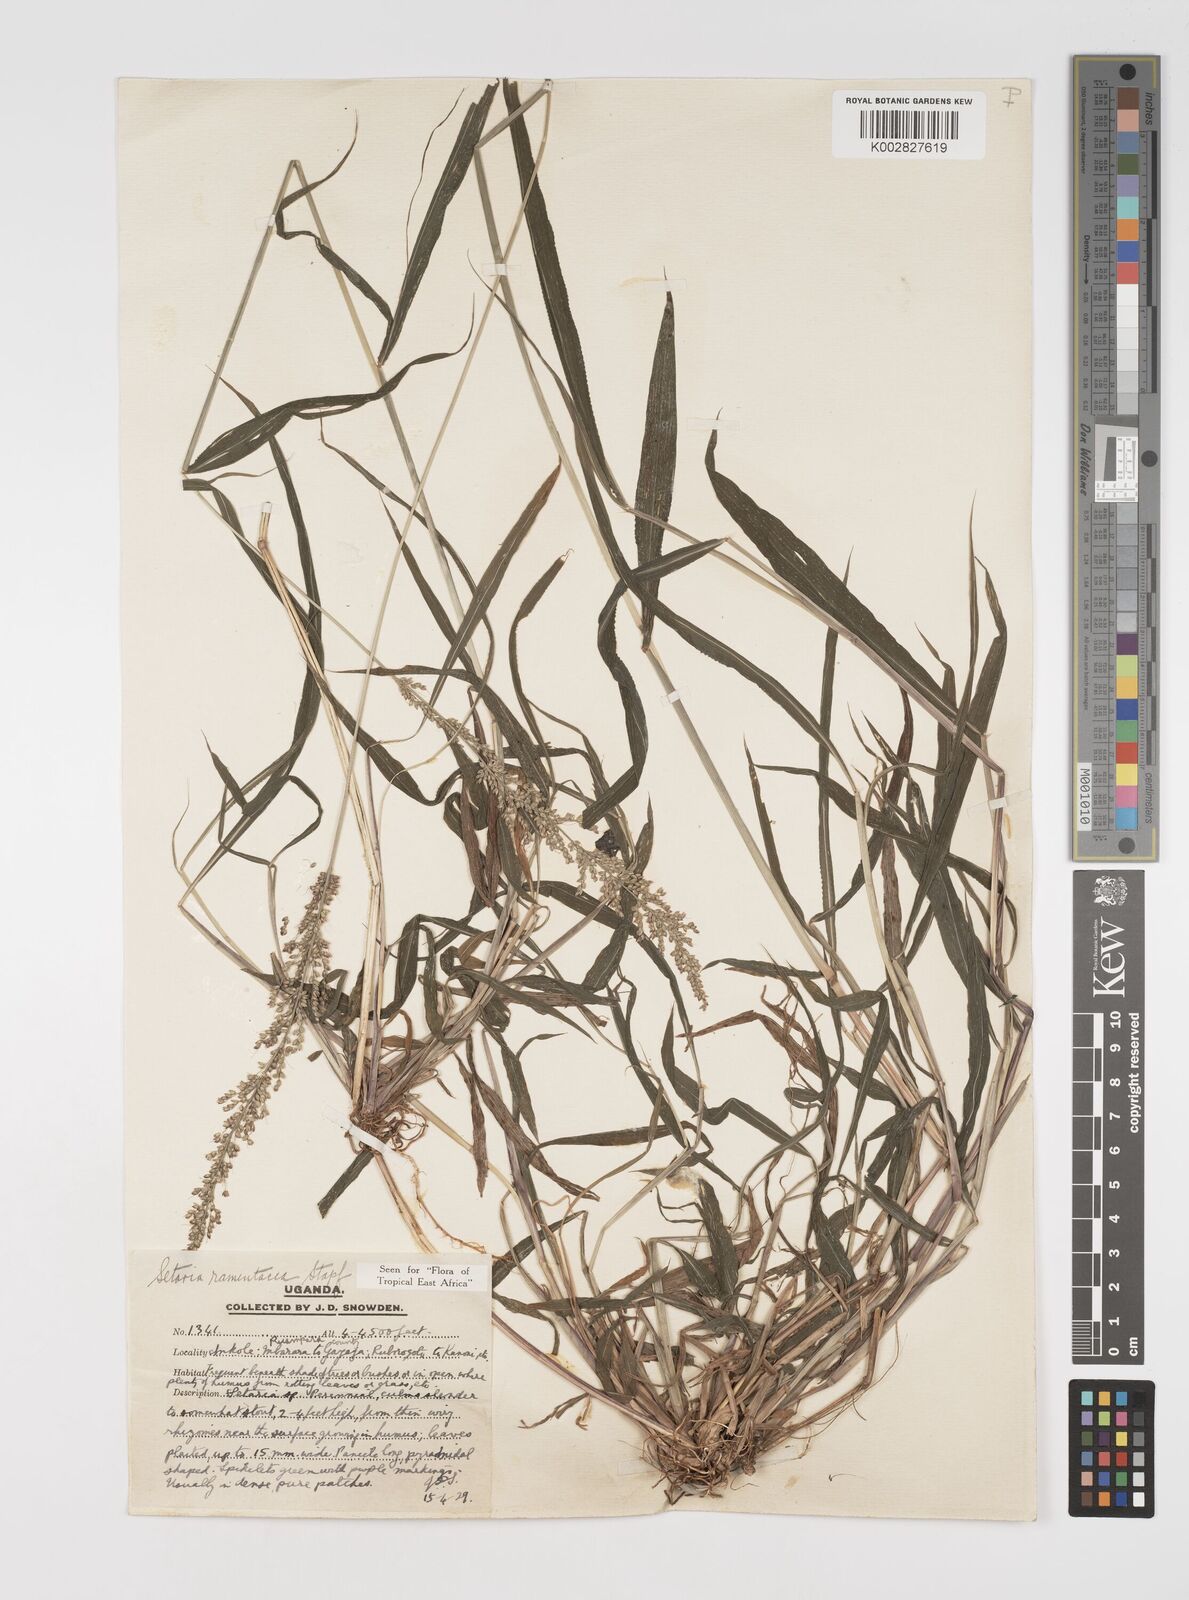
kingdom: Plantae
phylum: Tracheophyta
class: Liliopsida
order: Poales
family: Poaceae
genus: Setaria
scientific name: Setaria kagerensis
